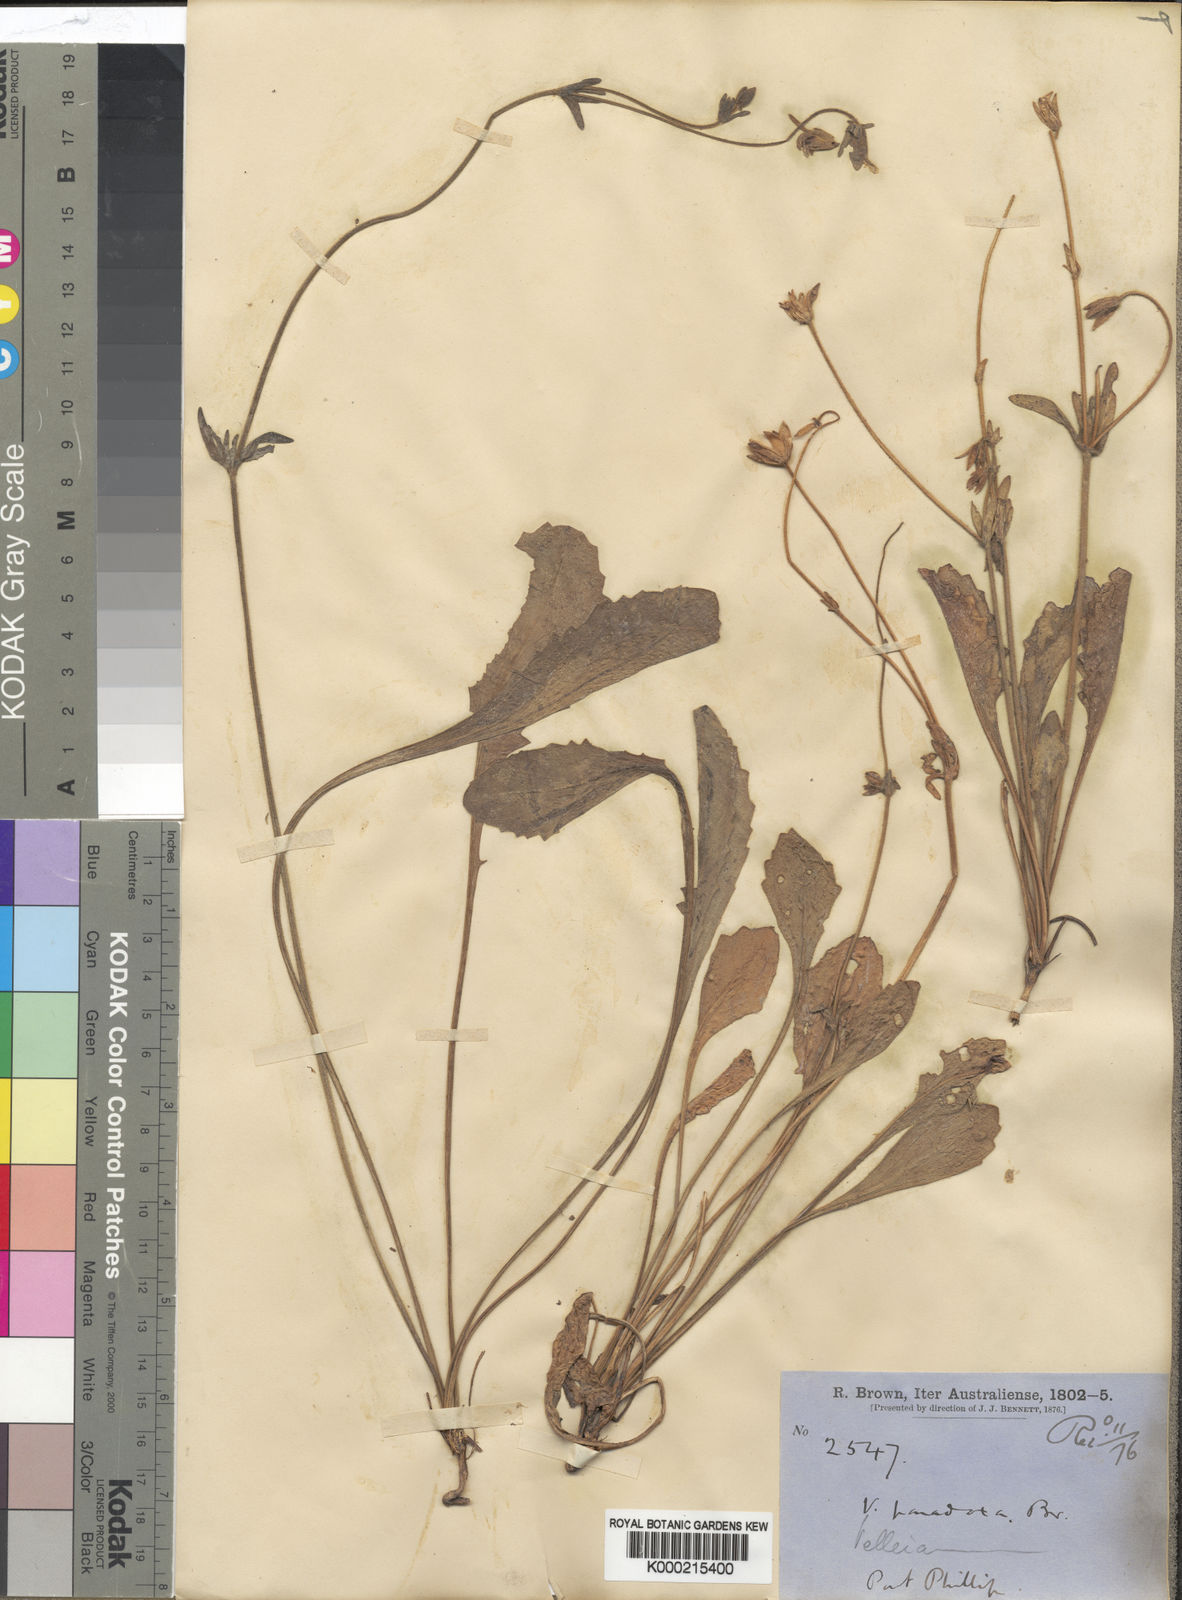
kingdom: Plantae
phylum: Tracheophyta
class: Magnoliopsida
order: Asterales
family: Goodeniaceae
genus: Goodenia
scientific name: Goodenia paradoxa
